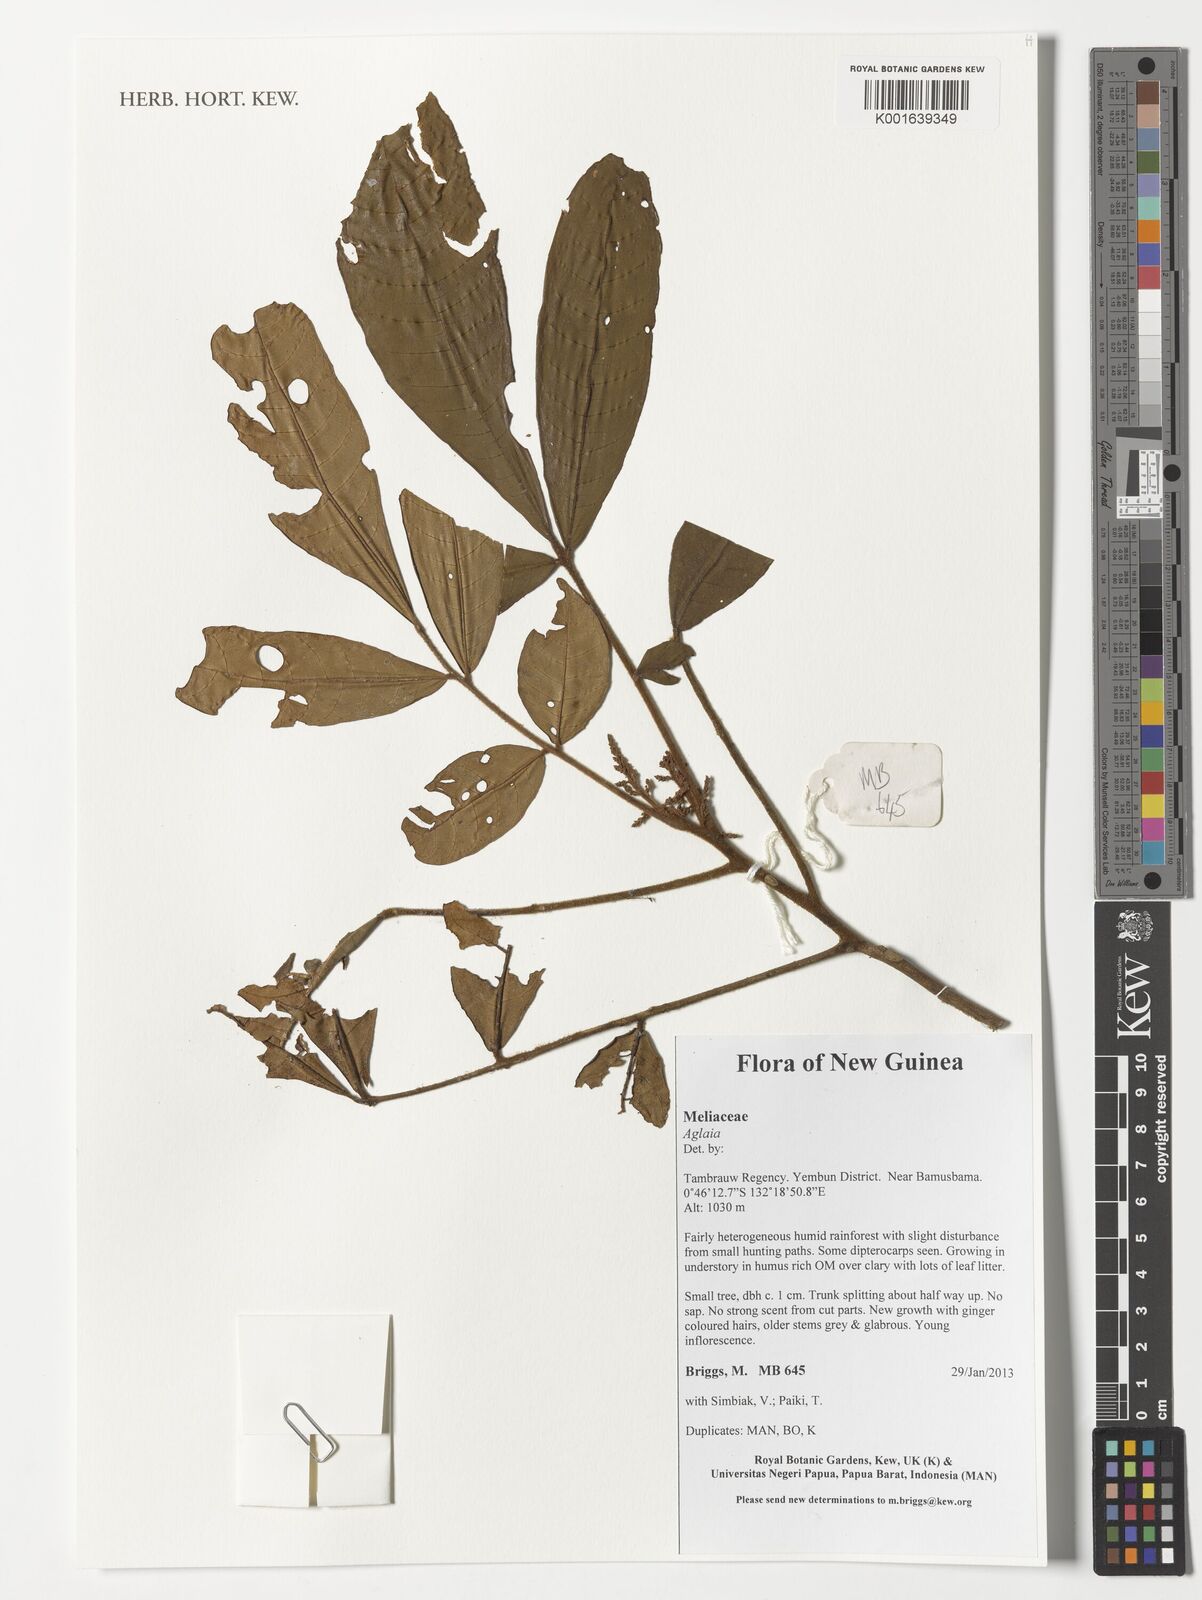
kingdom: Plantae
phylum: Tracheophyta
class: Magnoliopsida
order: Sapindales
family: Meliaceae
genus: Aglaia
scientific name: Aglaia
